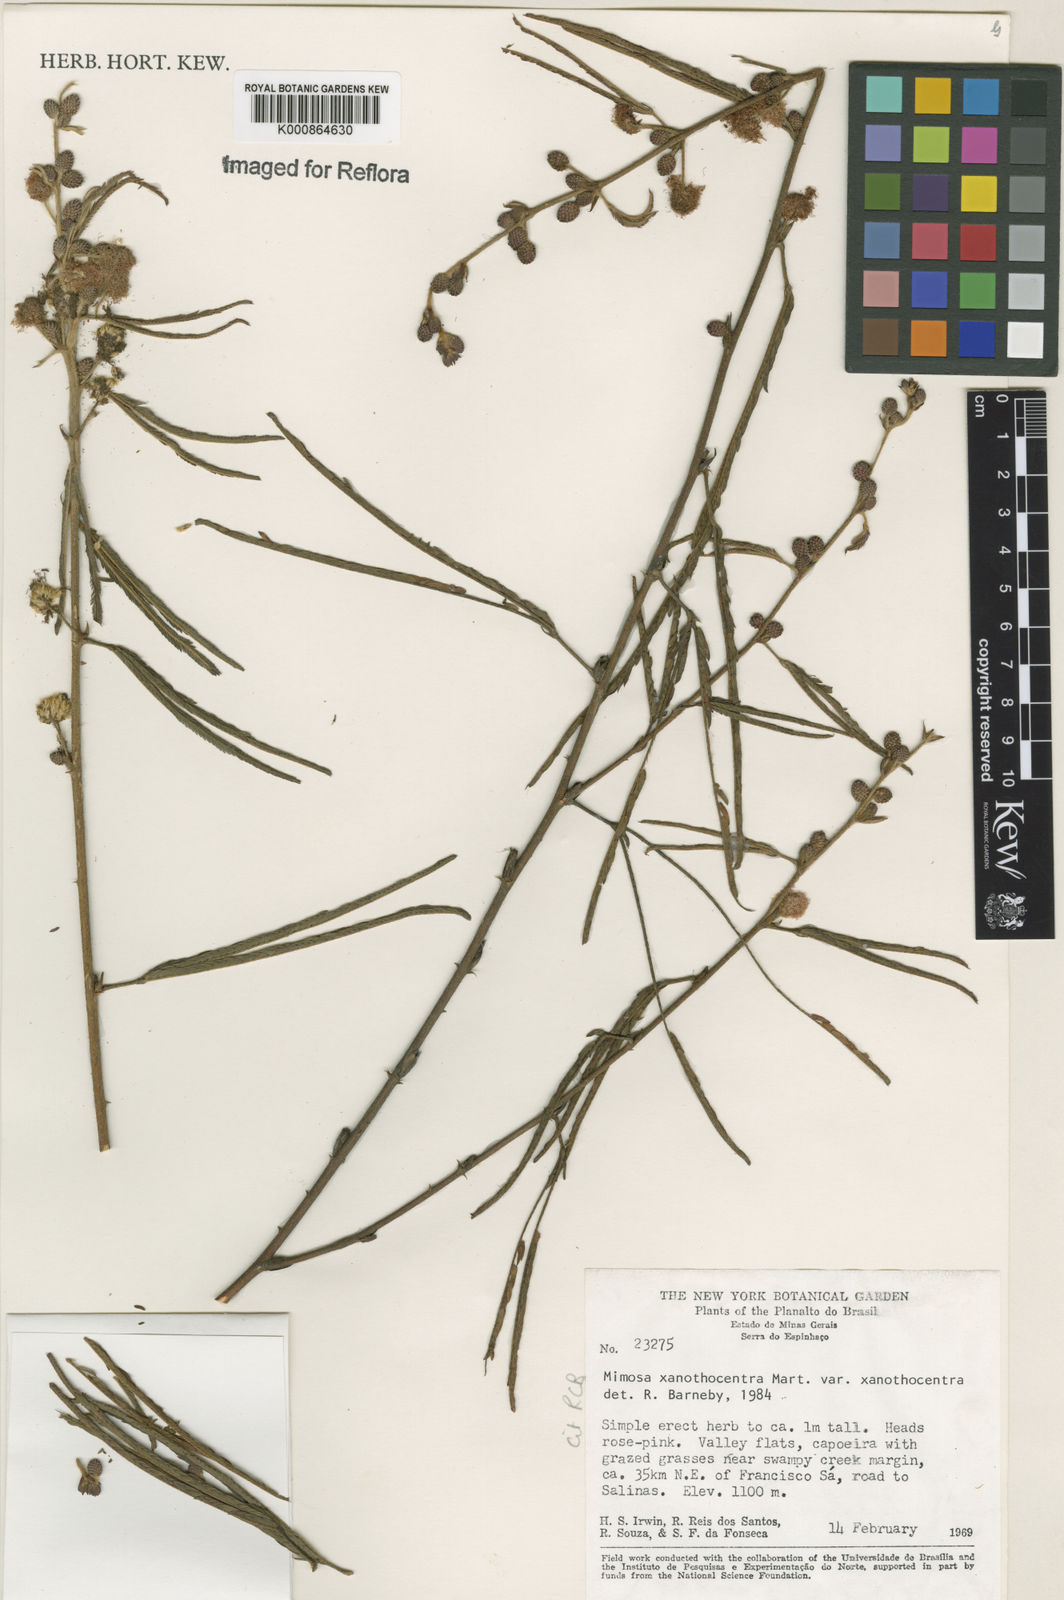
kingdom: Plantae
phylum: Tracheophyta
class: Magnoliopsida
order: Fabales
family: Fabaceae
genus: Mimosa
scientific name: Mimosa xanthocentra
